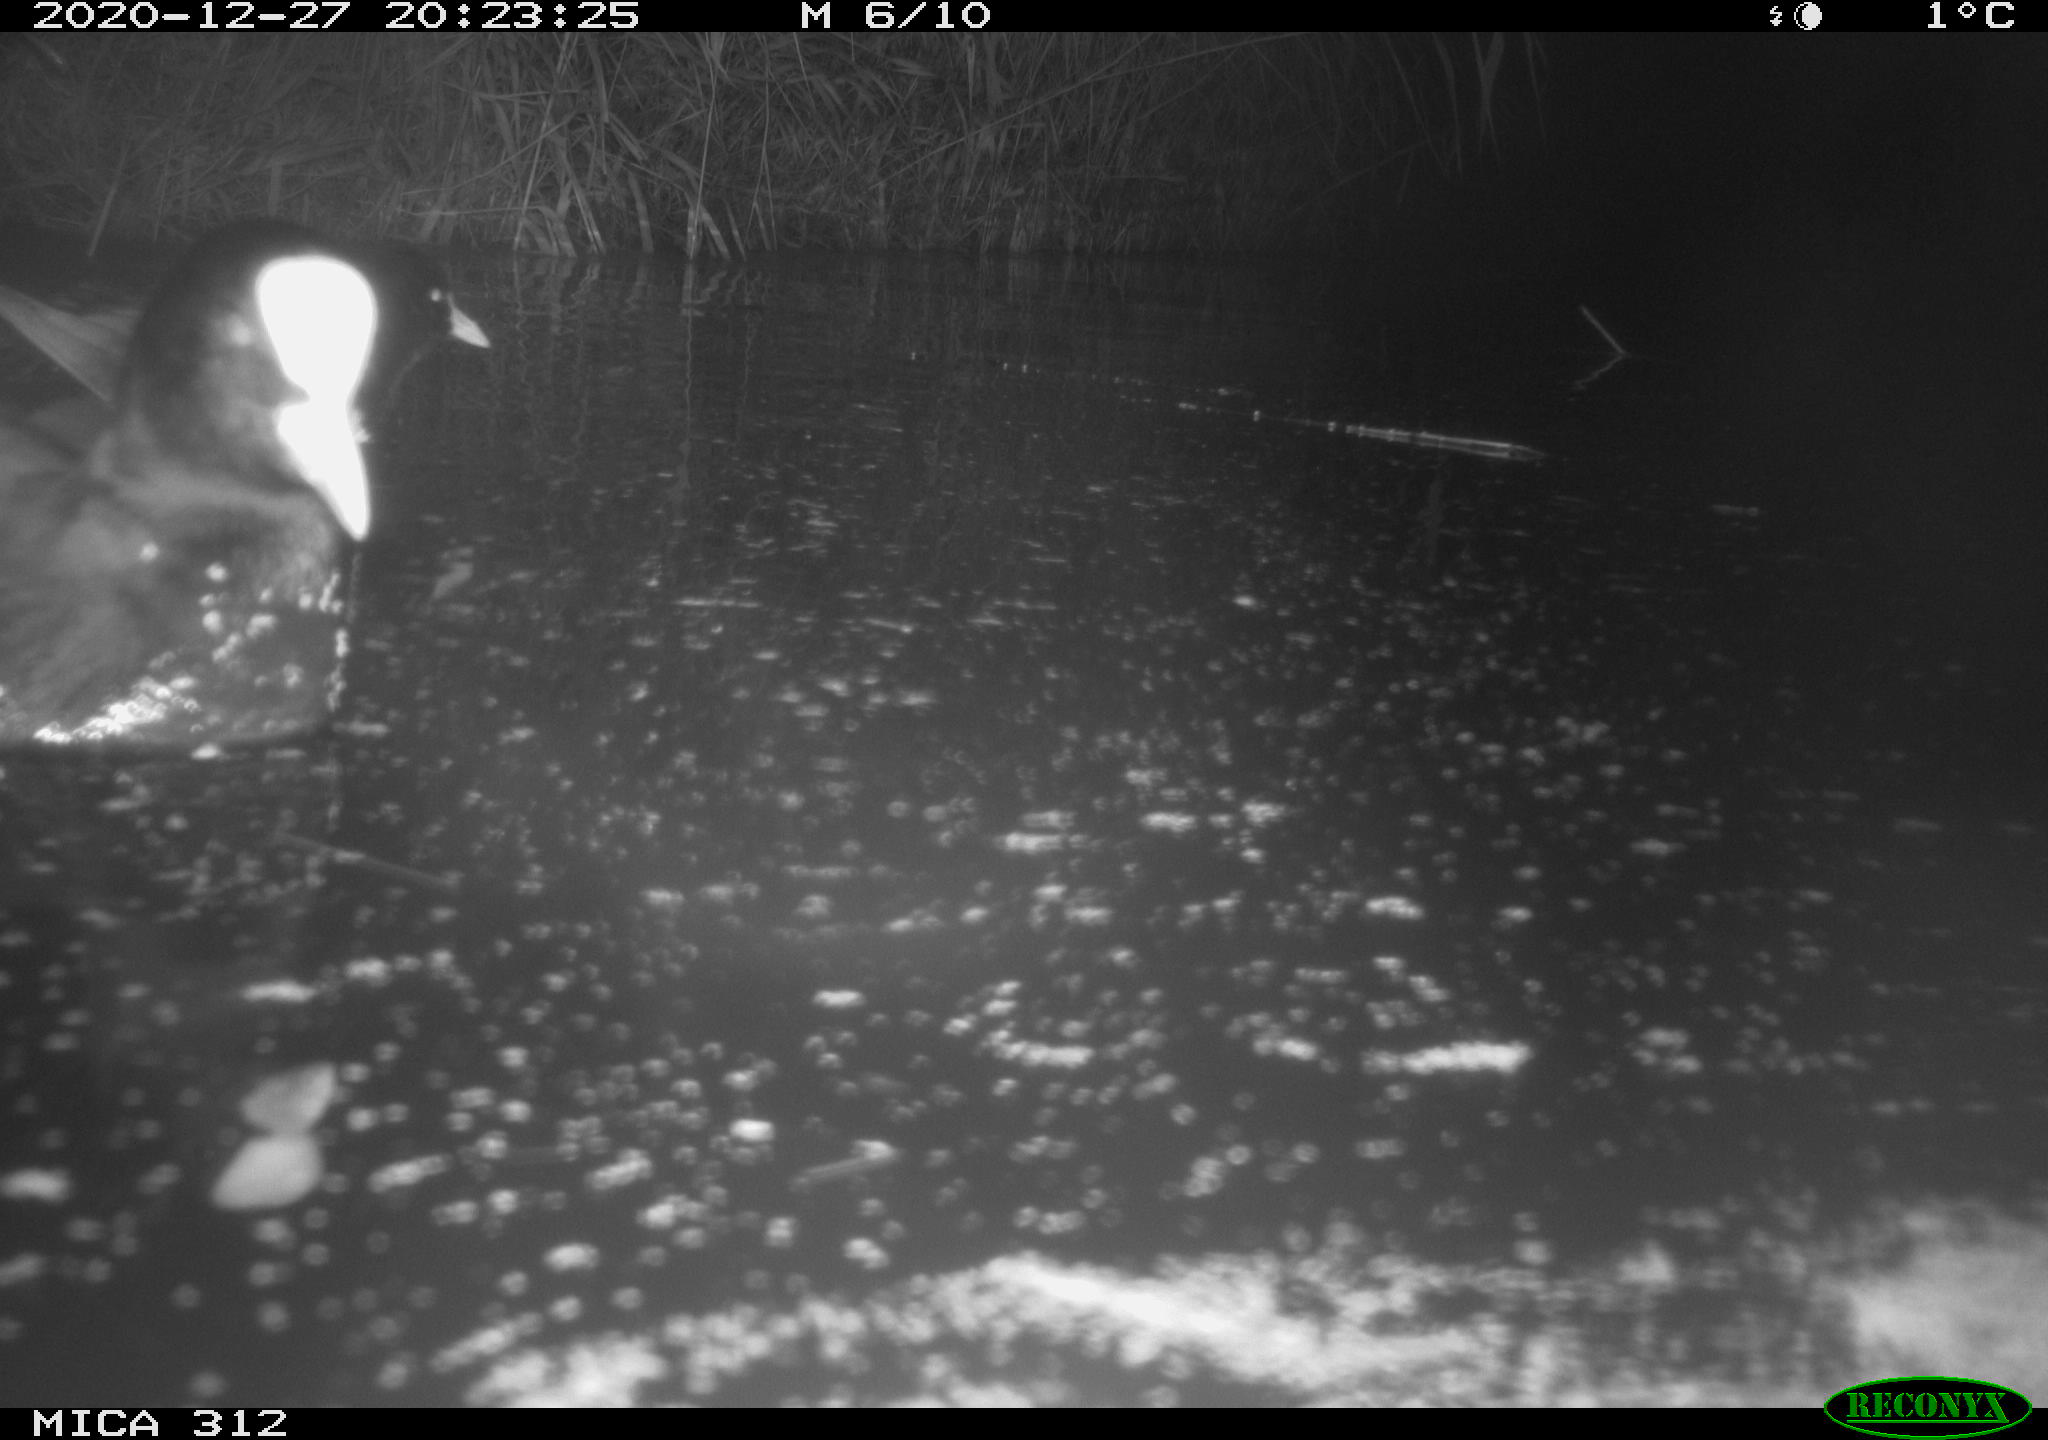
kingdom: Animalia
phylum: Chordata
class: Aves
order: Gruiformes
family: Rallidae
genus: Fulica
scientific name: Fulica atra
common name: Eurasian coot
